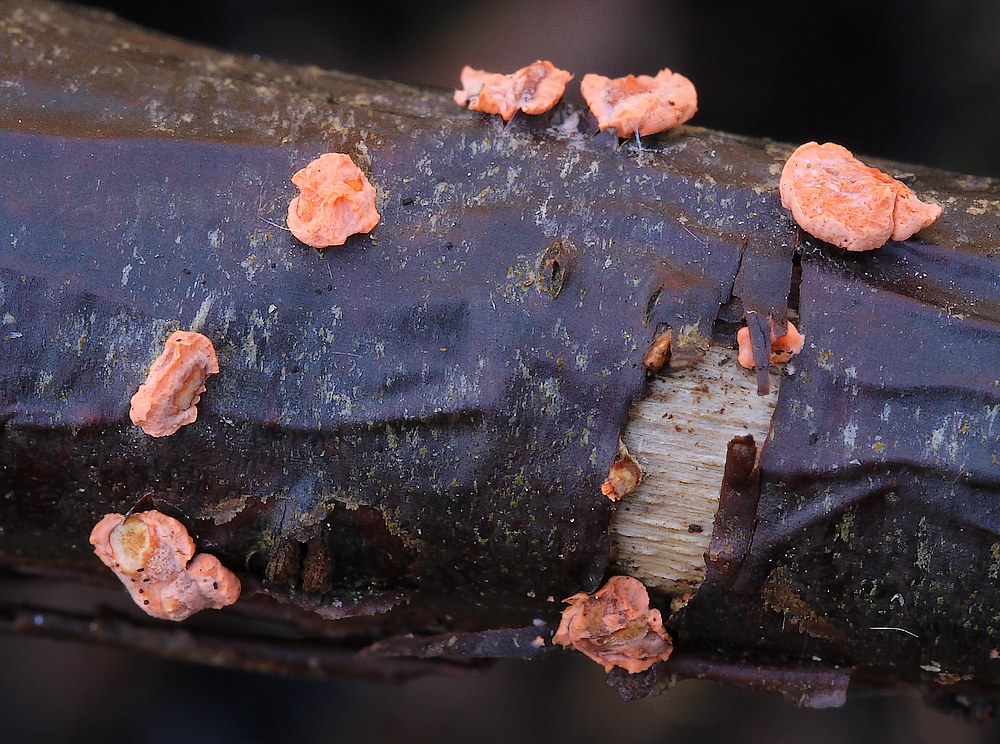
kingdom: Fungi
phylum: Ascomycota
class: Sordariomycetes
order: Hypocreales
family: Nectriaceae
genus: Nectria
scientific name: Nectria cinnabarina
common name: almindelig cinnobersvamp
